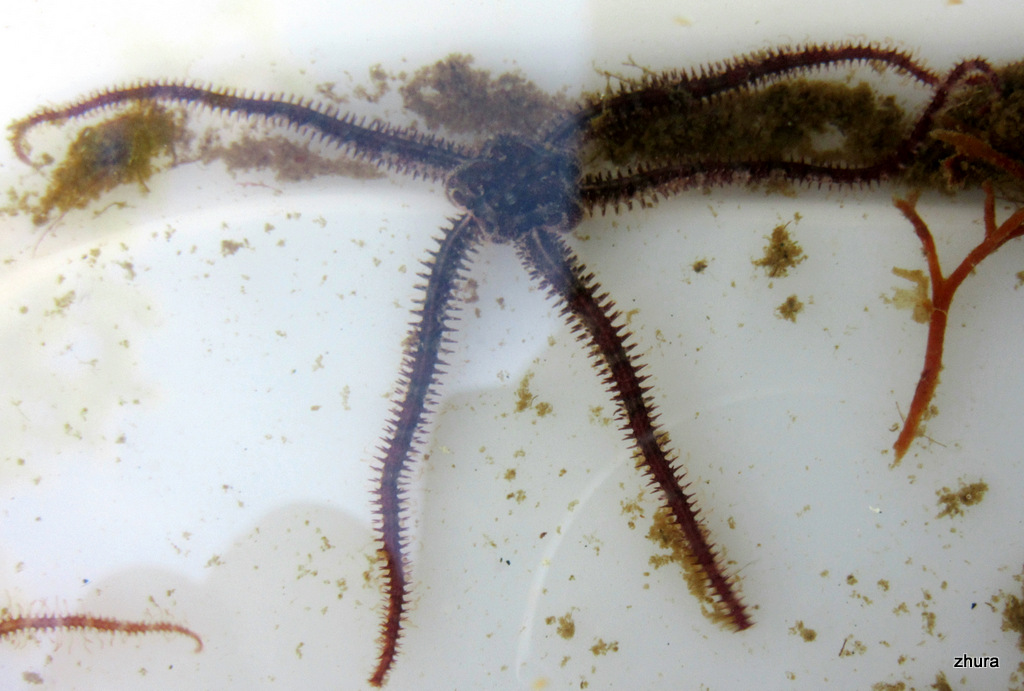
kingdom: Animalia
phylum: Echinodermata
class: Ophiuroidea
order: Amphilepidida
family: Ophiopholidae
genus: Ophiopholis
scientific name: Ophiopholis aculeata
